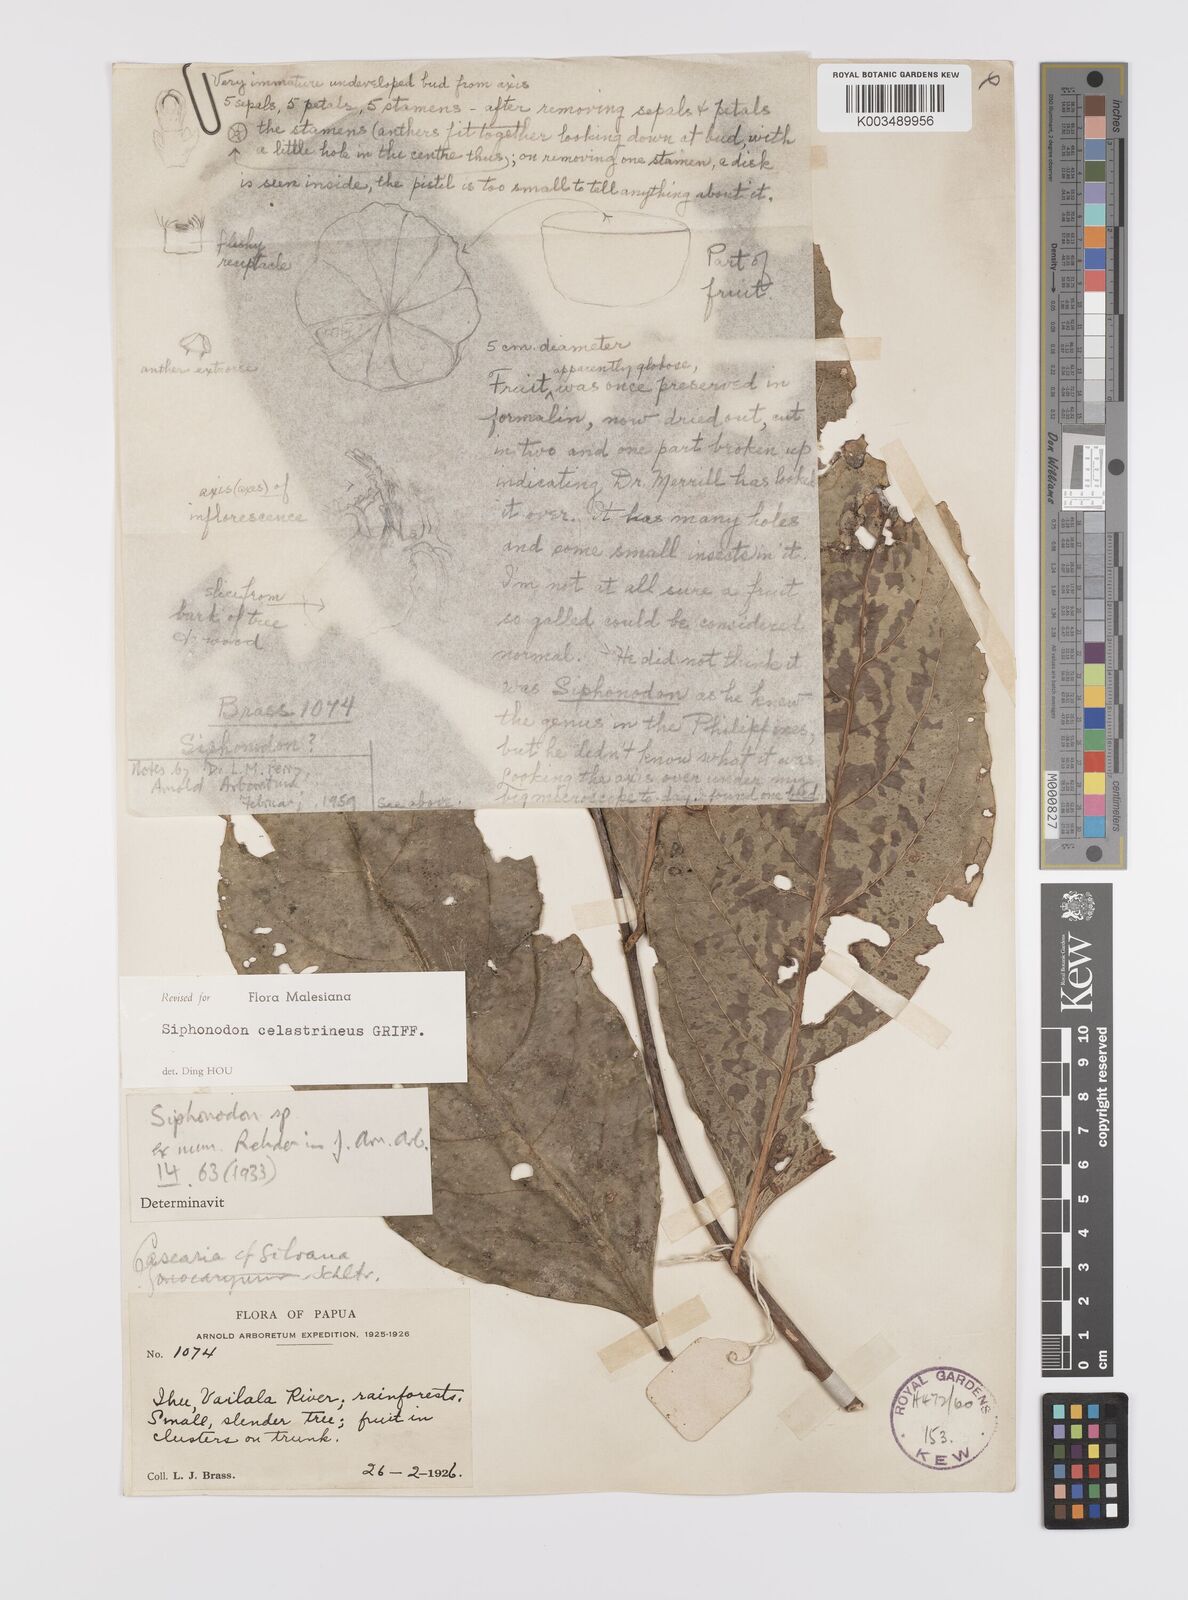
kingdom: Plantae
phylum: Tracheophyta
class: Magnoliopsida
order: Celastrales
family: Celastraceae
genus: Siphonodon
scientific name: Siphonodon celastrineus
